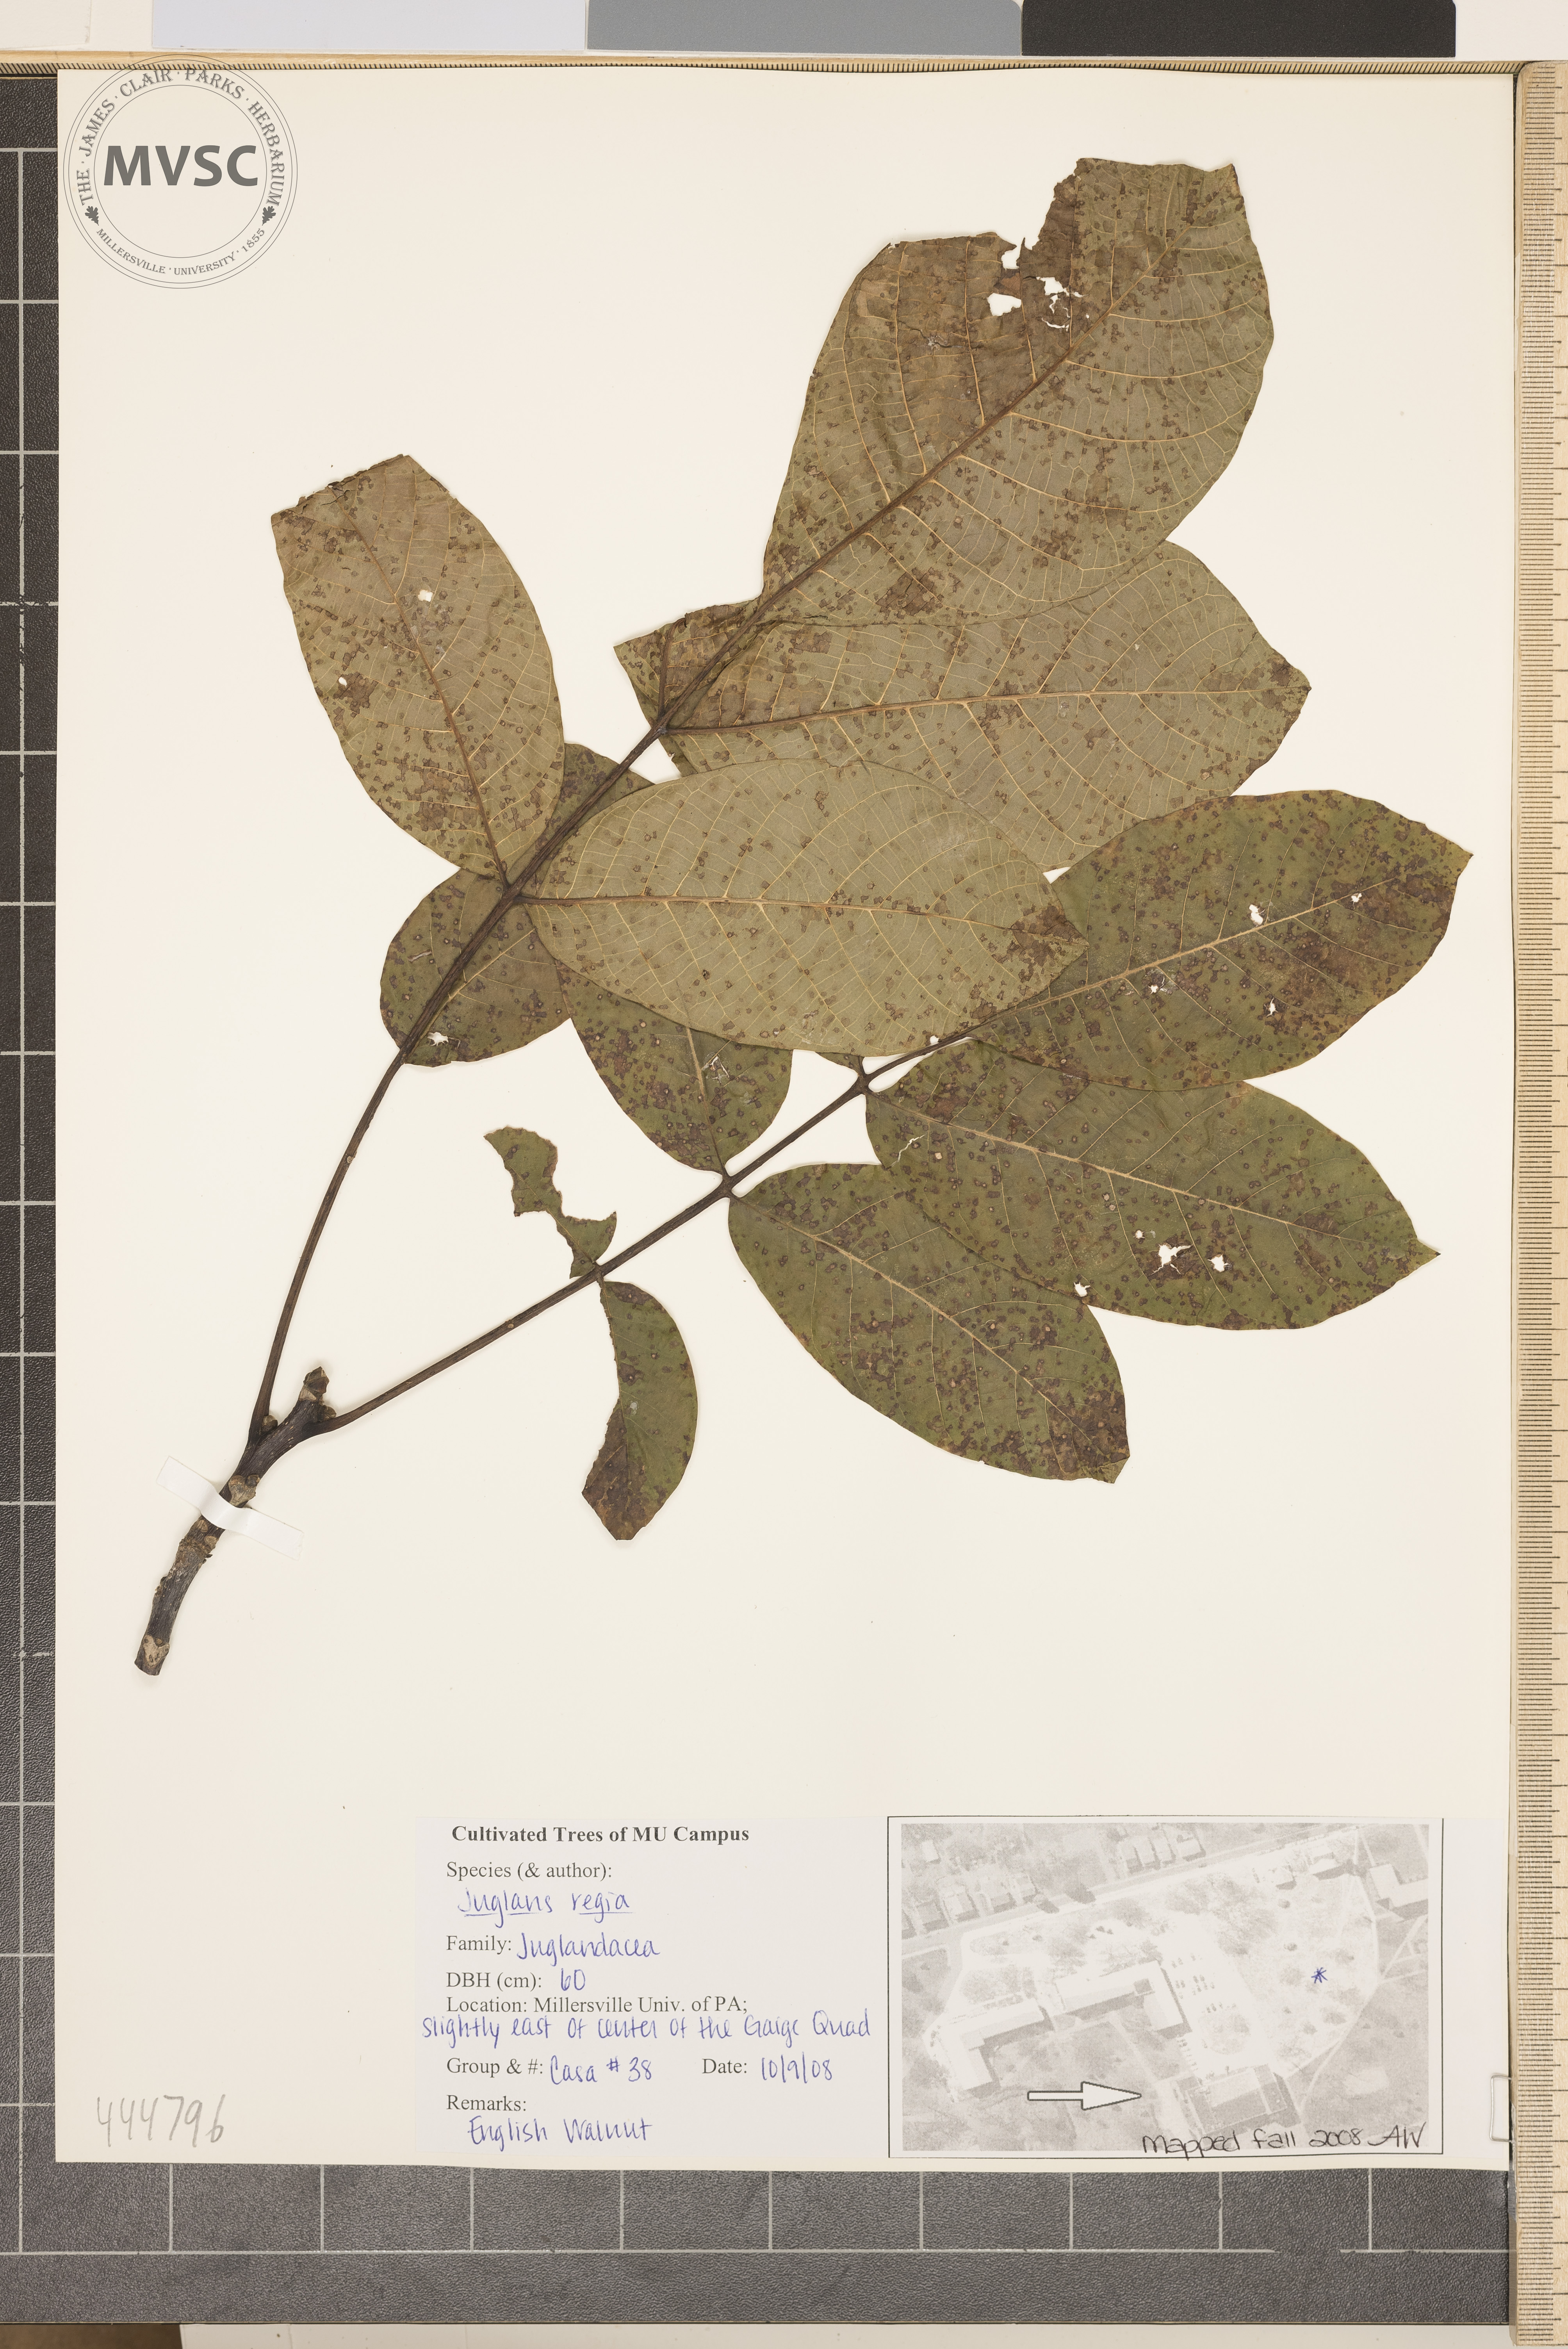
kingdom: Plantae
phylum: Tracheophyta
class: Magnoliopsida
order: Fagales
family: Juglandaceae
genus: Juglans
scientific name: Juglans regia
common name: Walnut
